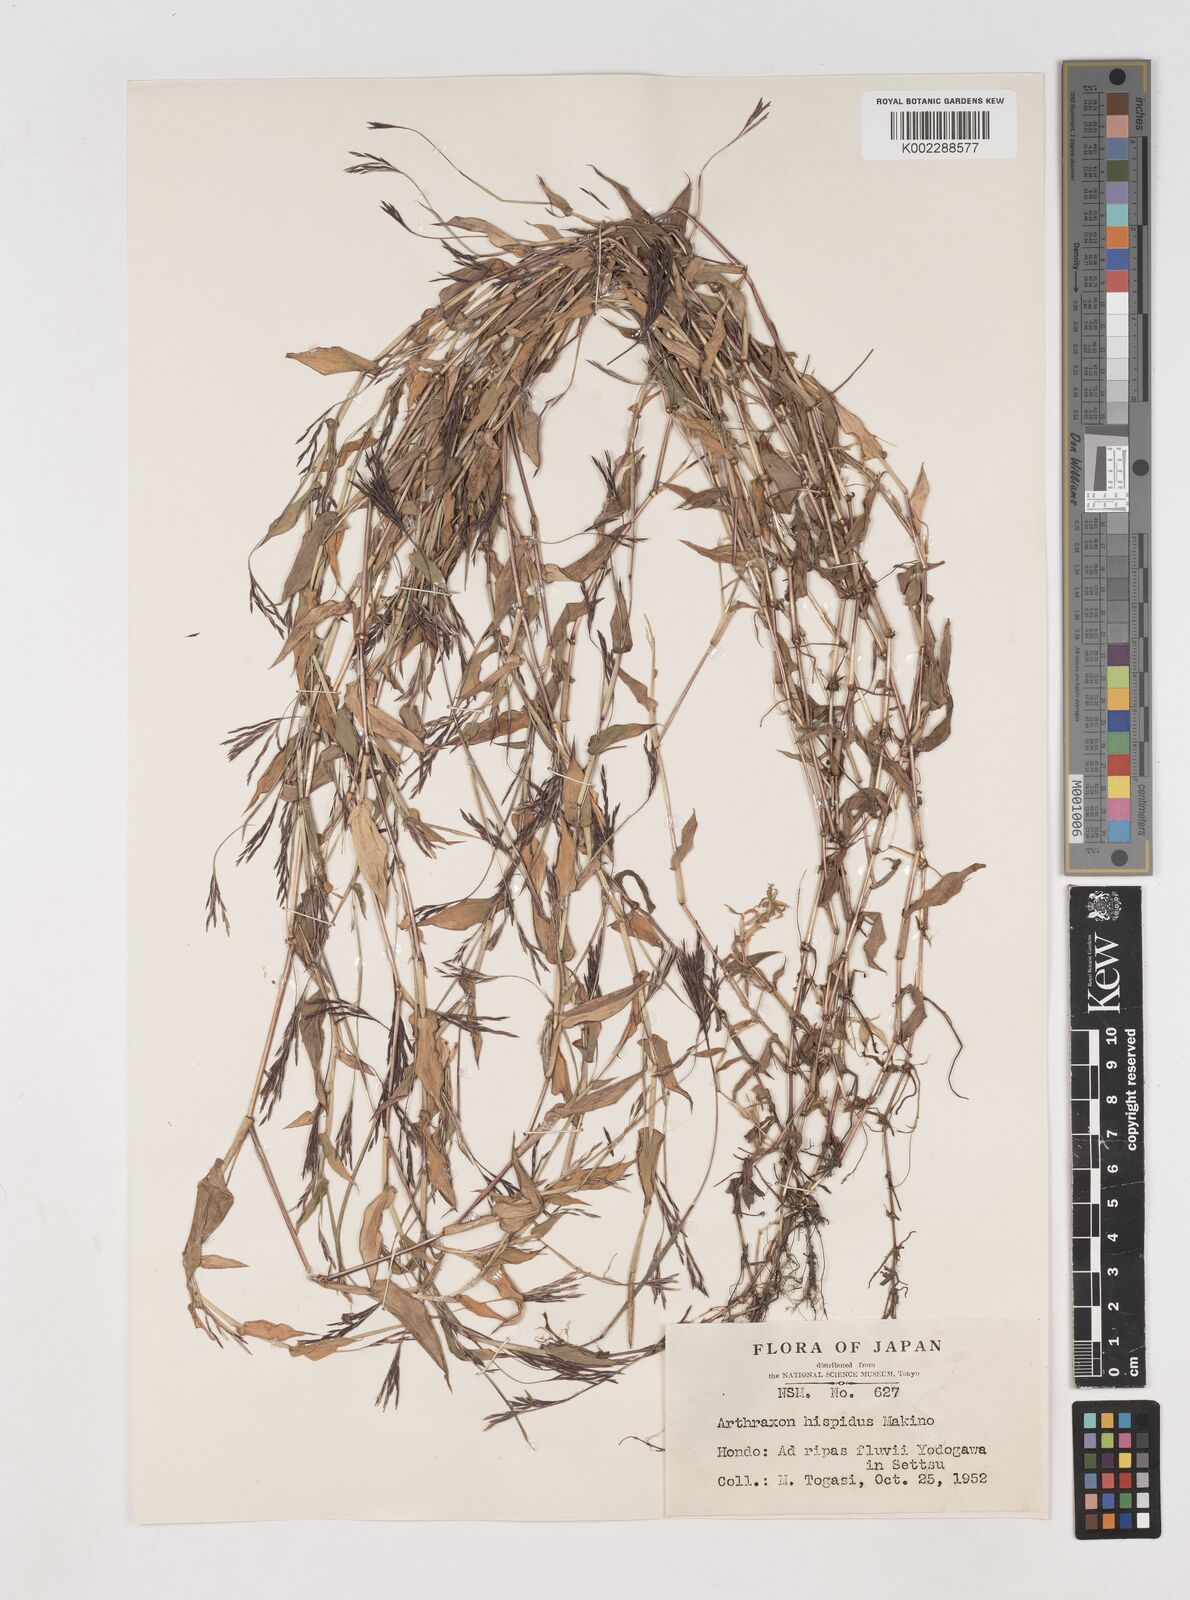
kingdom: Plantae
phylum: Tracheophyta
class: Liliopsida
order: Poales
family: Poaceae
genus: Arthraxon
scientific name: Arthraxon hispidus
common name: Small carpgrass
